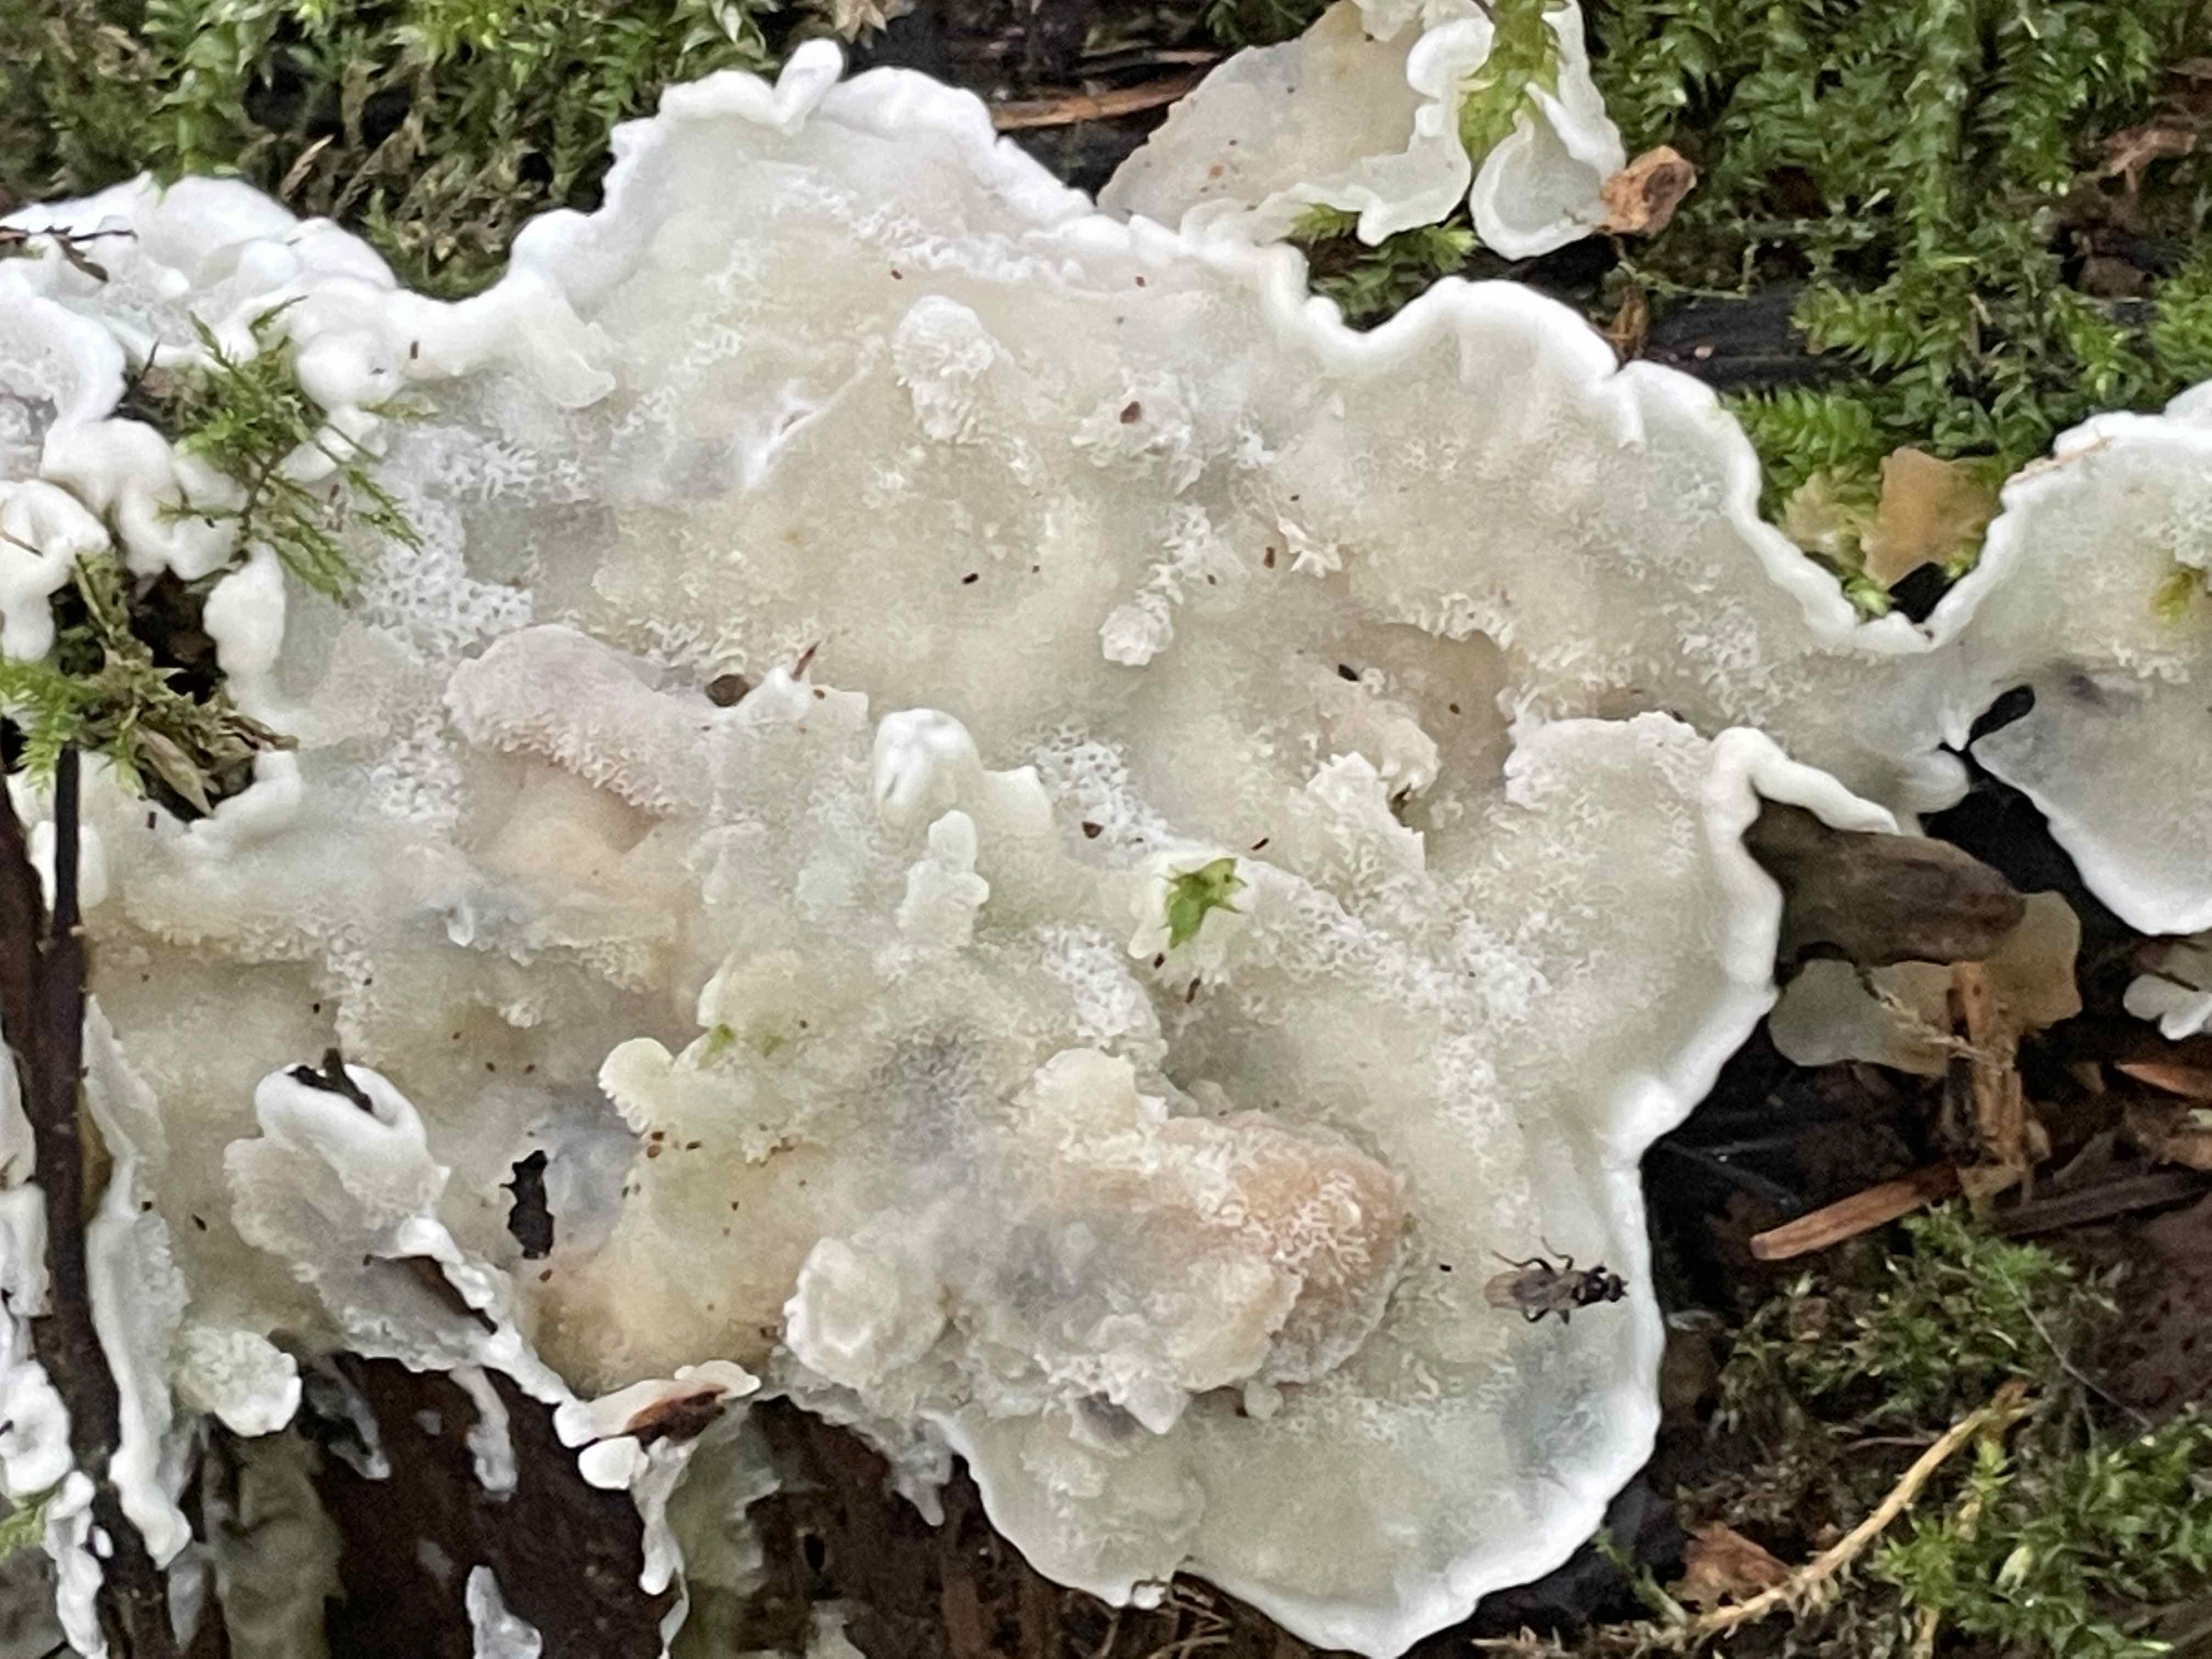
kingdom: Fungi
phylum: Basidiomycota
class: Agaricomycetes
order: Polyporales
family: Meruliaceae
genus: Physisporinus
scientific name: Physisporinus vitreus
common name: mastesvamp
